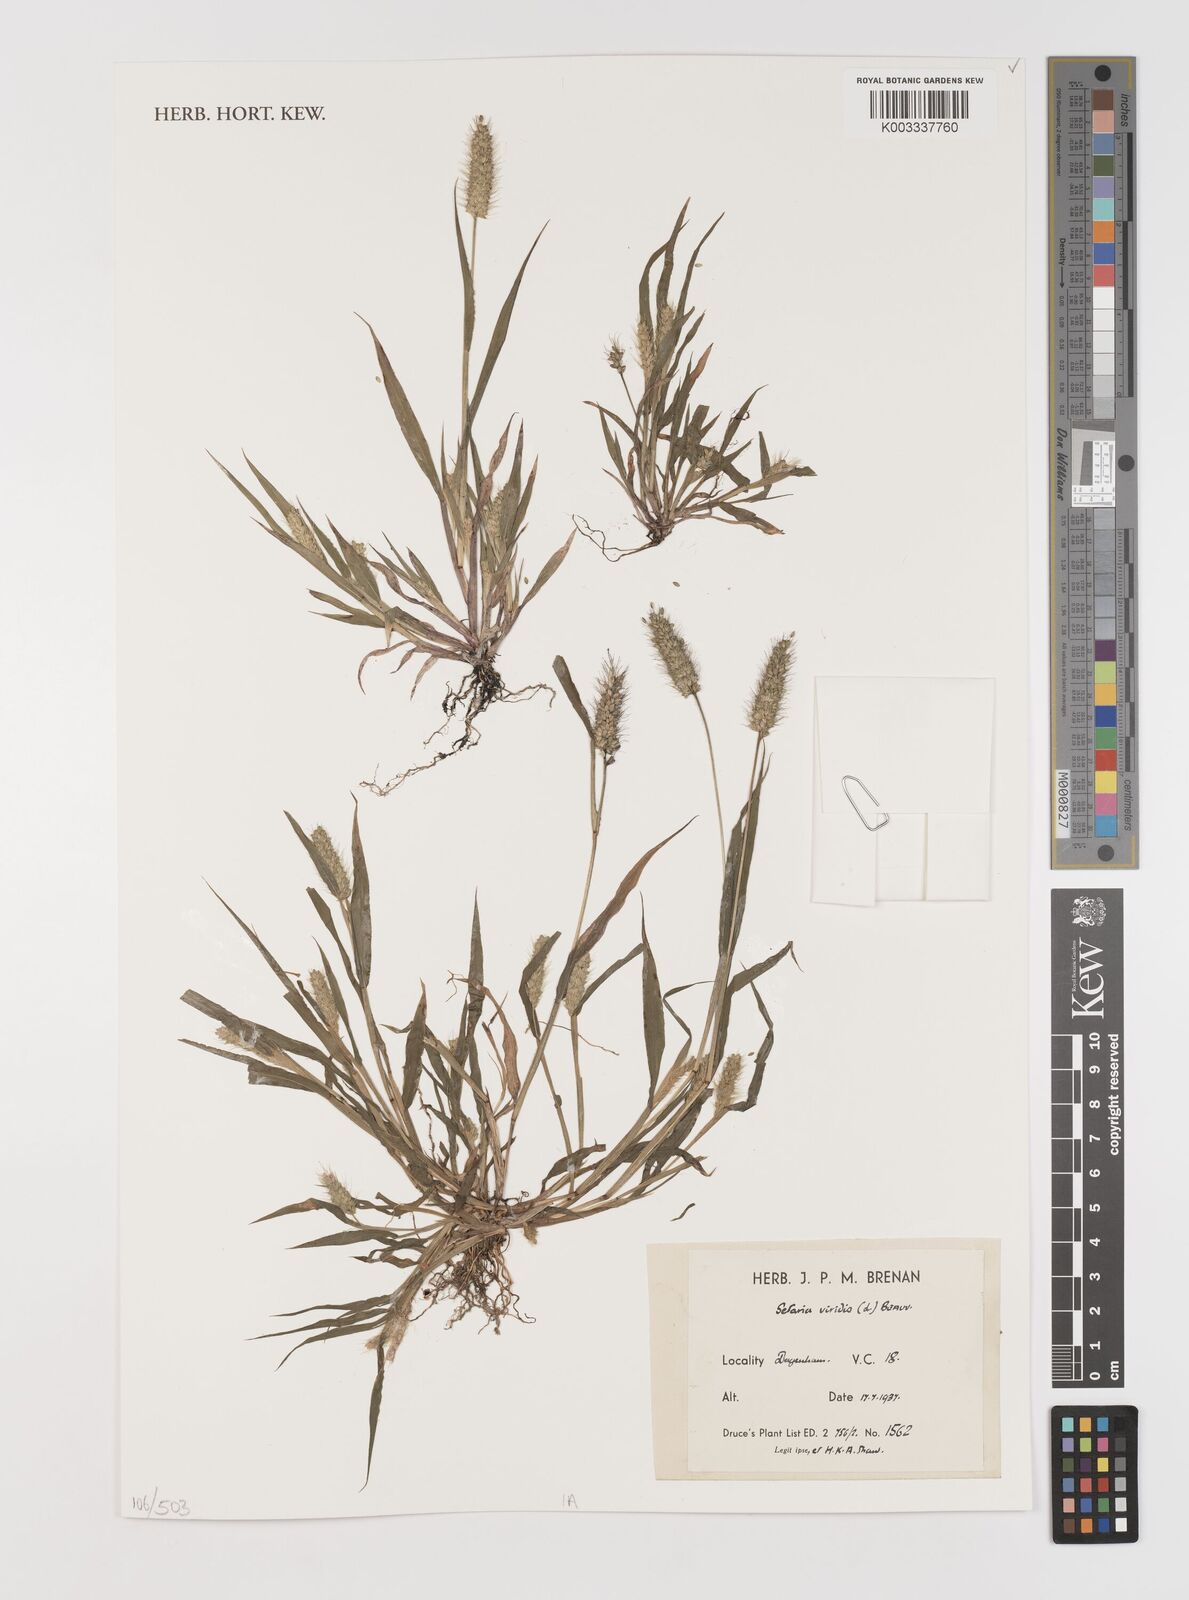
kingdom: Plantae
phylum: Tracheophyta
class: Liliopsida
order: Poales
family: Poaceae
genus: Setaria
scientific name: Setaria viridis
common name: Green bristlegrass
